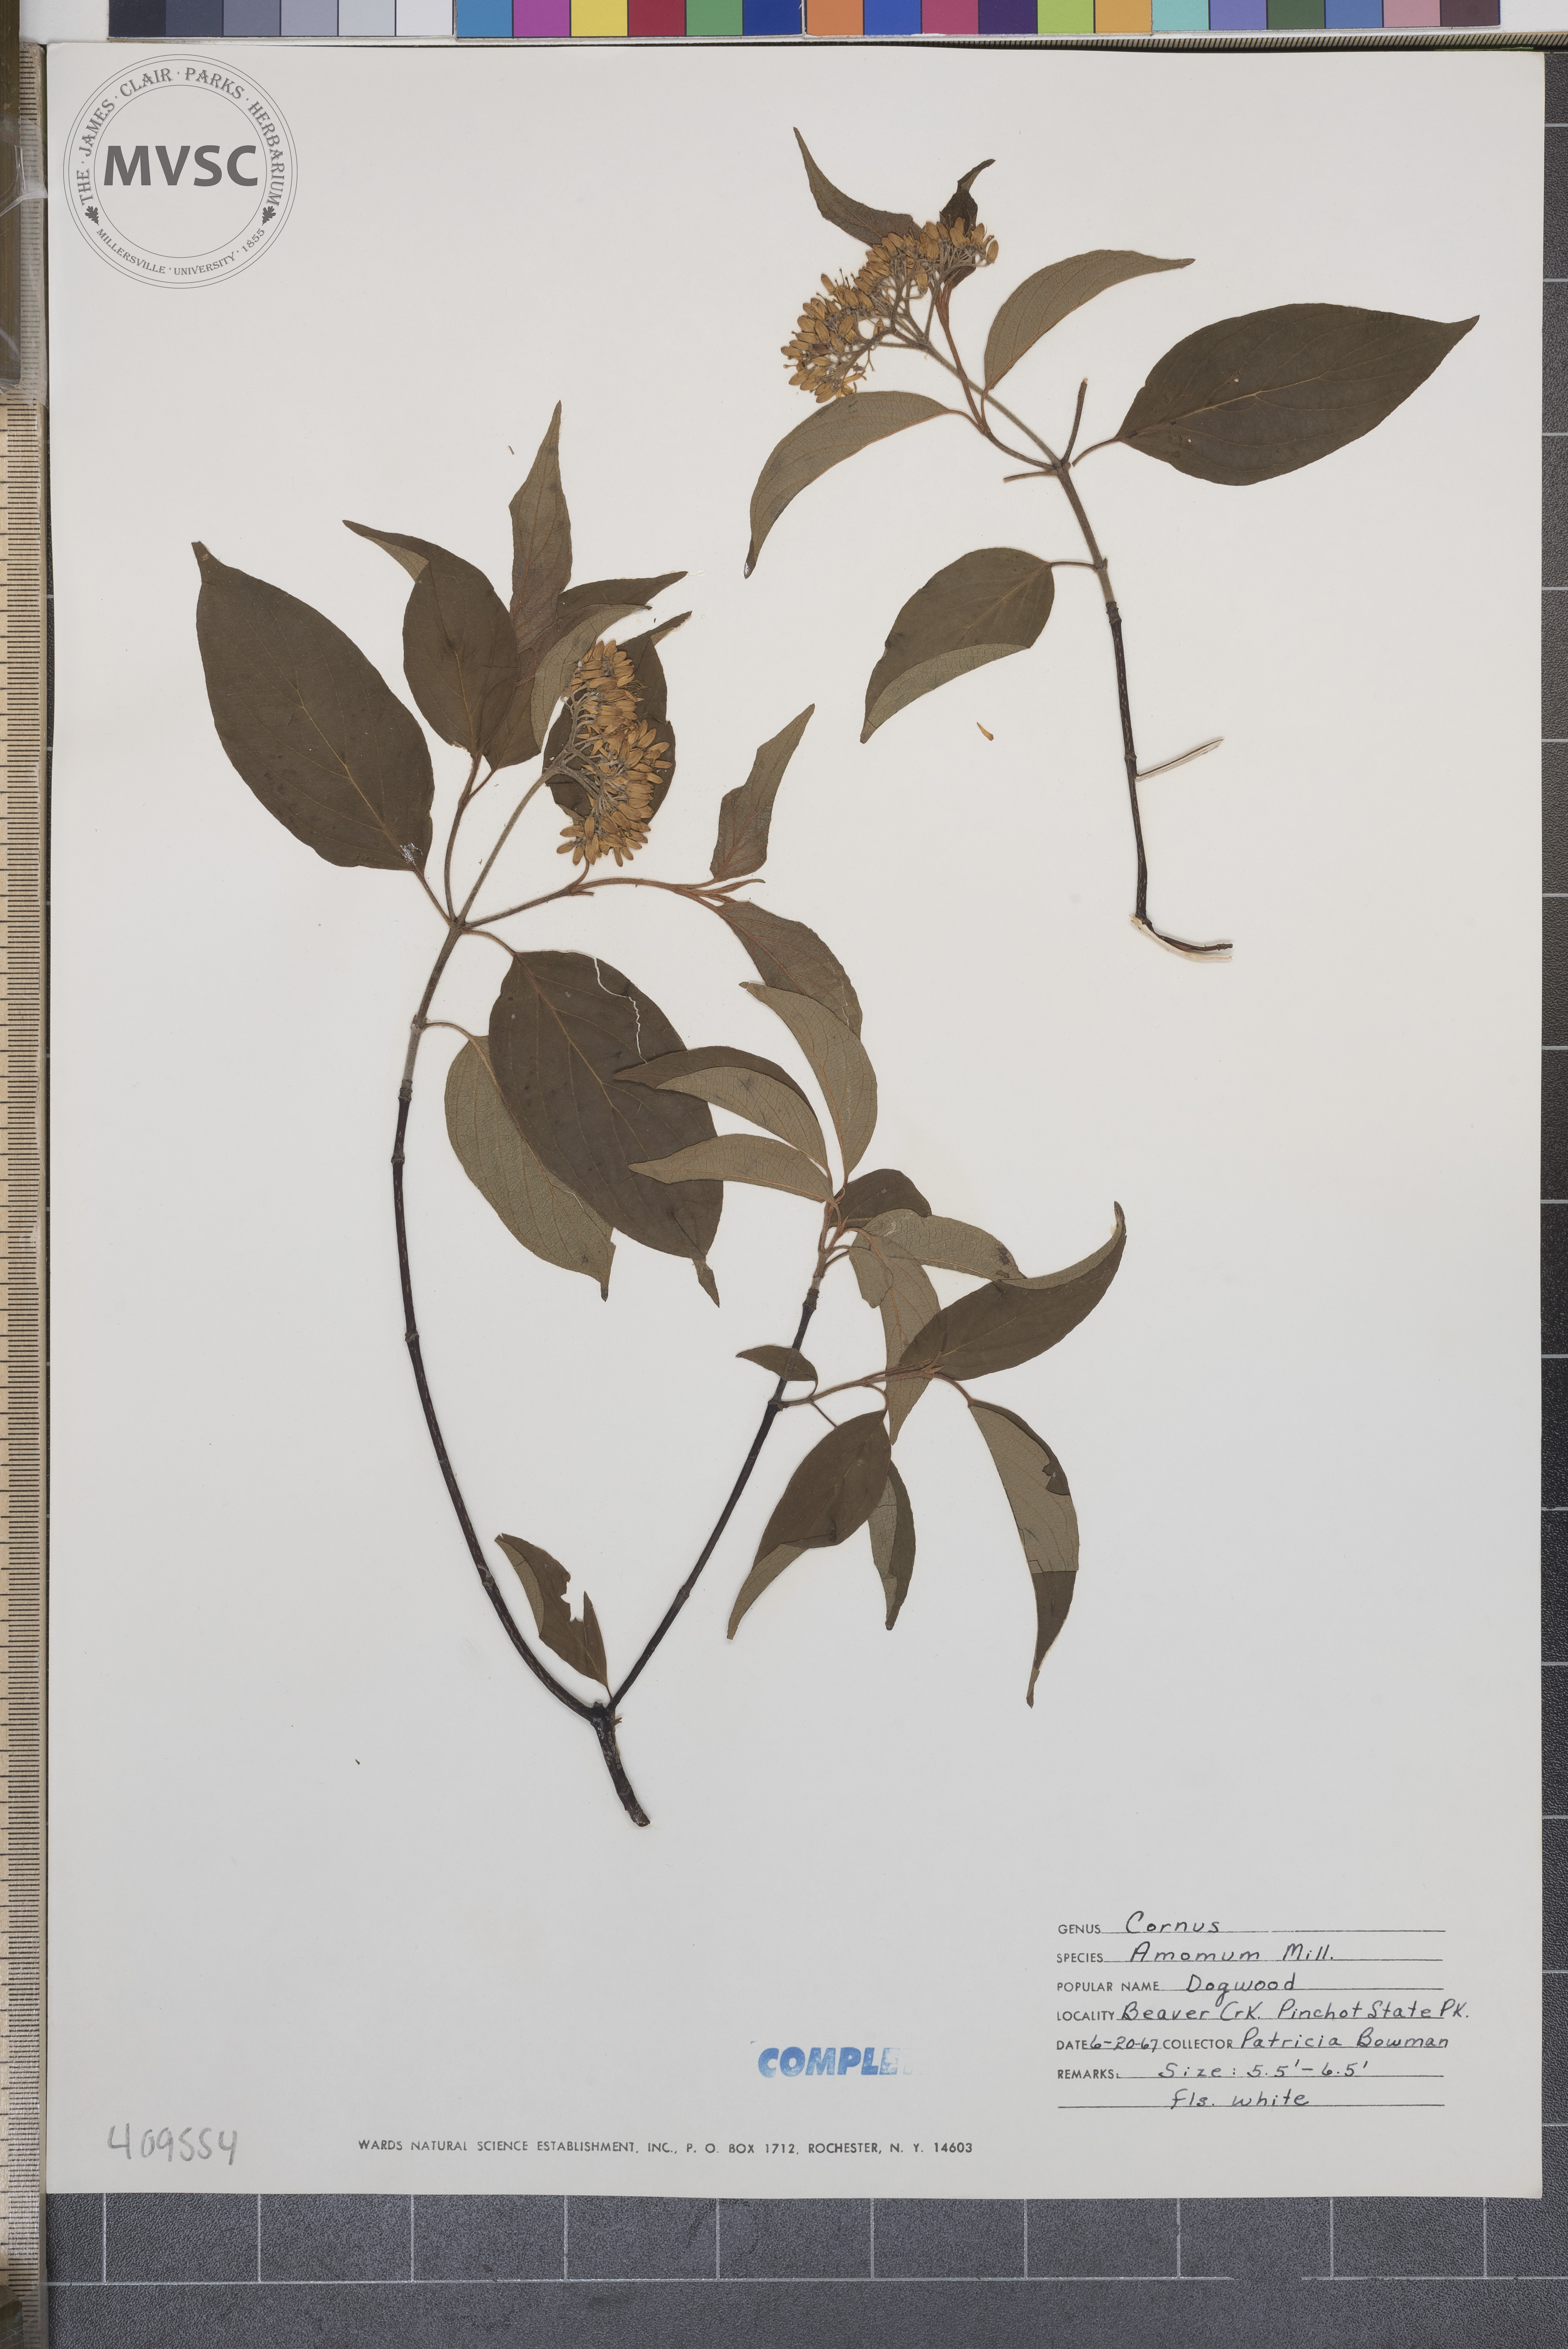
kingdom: Plantae
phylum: Tracheophyta
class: Magnoliopsida
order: Cornales
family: Cornaceae
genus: Cornus
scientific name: Cornus amomum
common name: Silky dogwood
